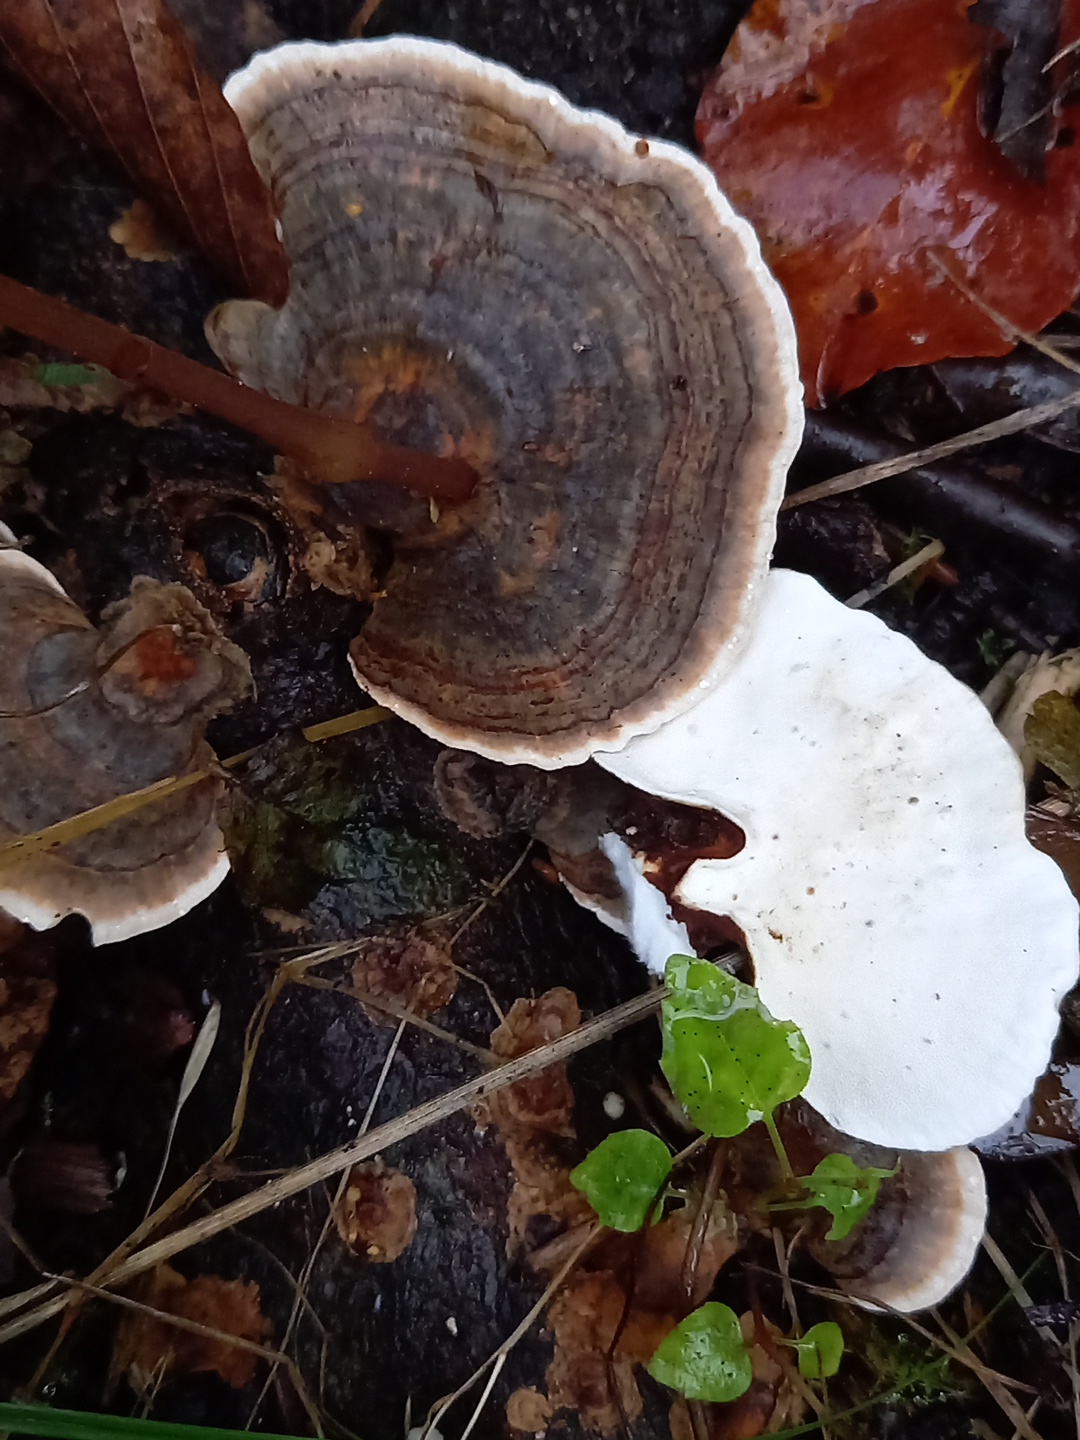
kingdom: Fungi
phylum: Basidiomycota
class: Agaricomycetes
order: Polyporales
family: Polyporaceae
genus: Trametes
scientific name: Trametes versicolor
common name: broget læderporesvamp
